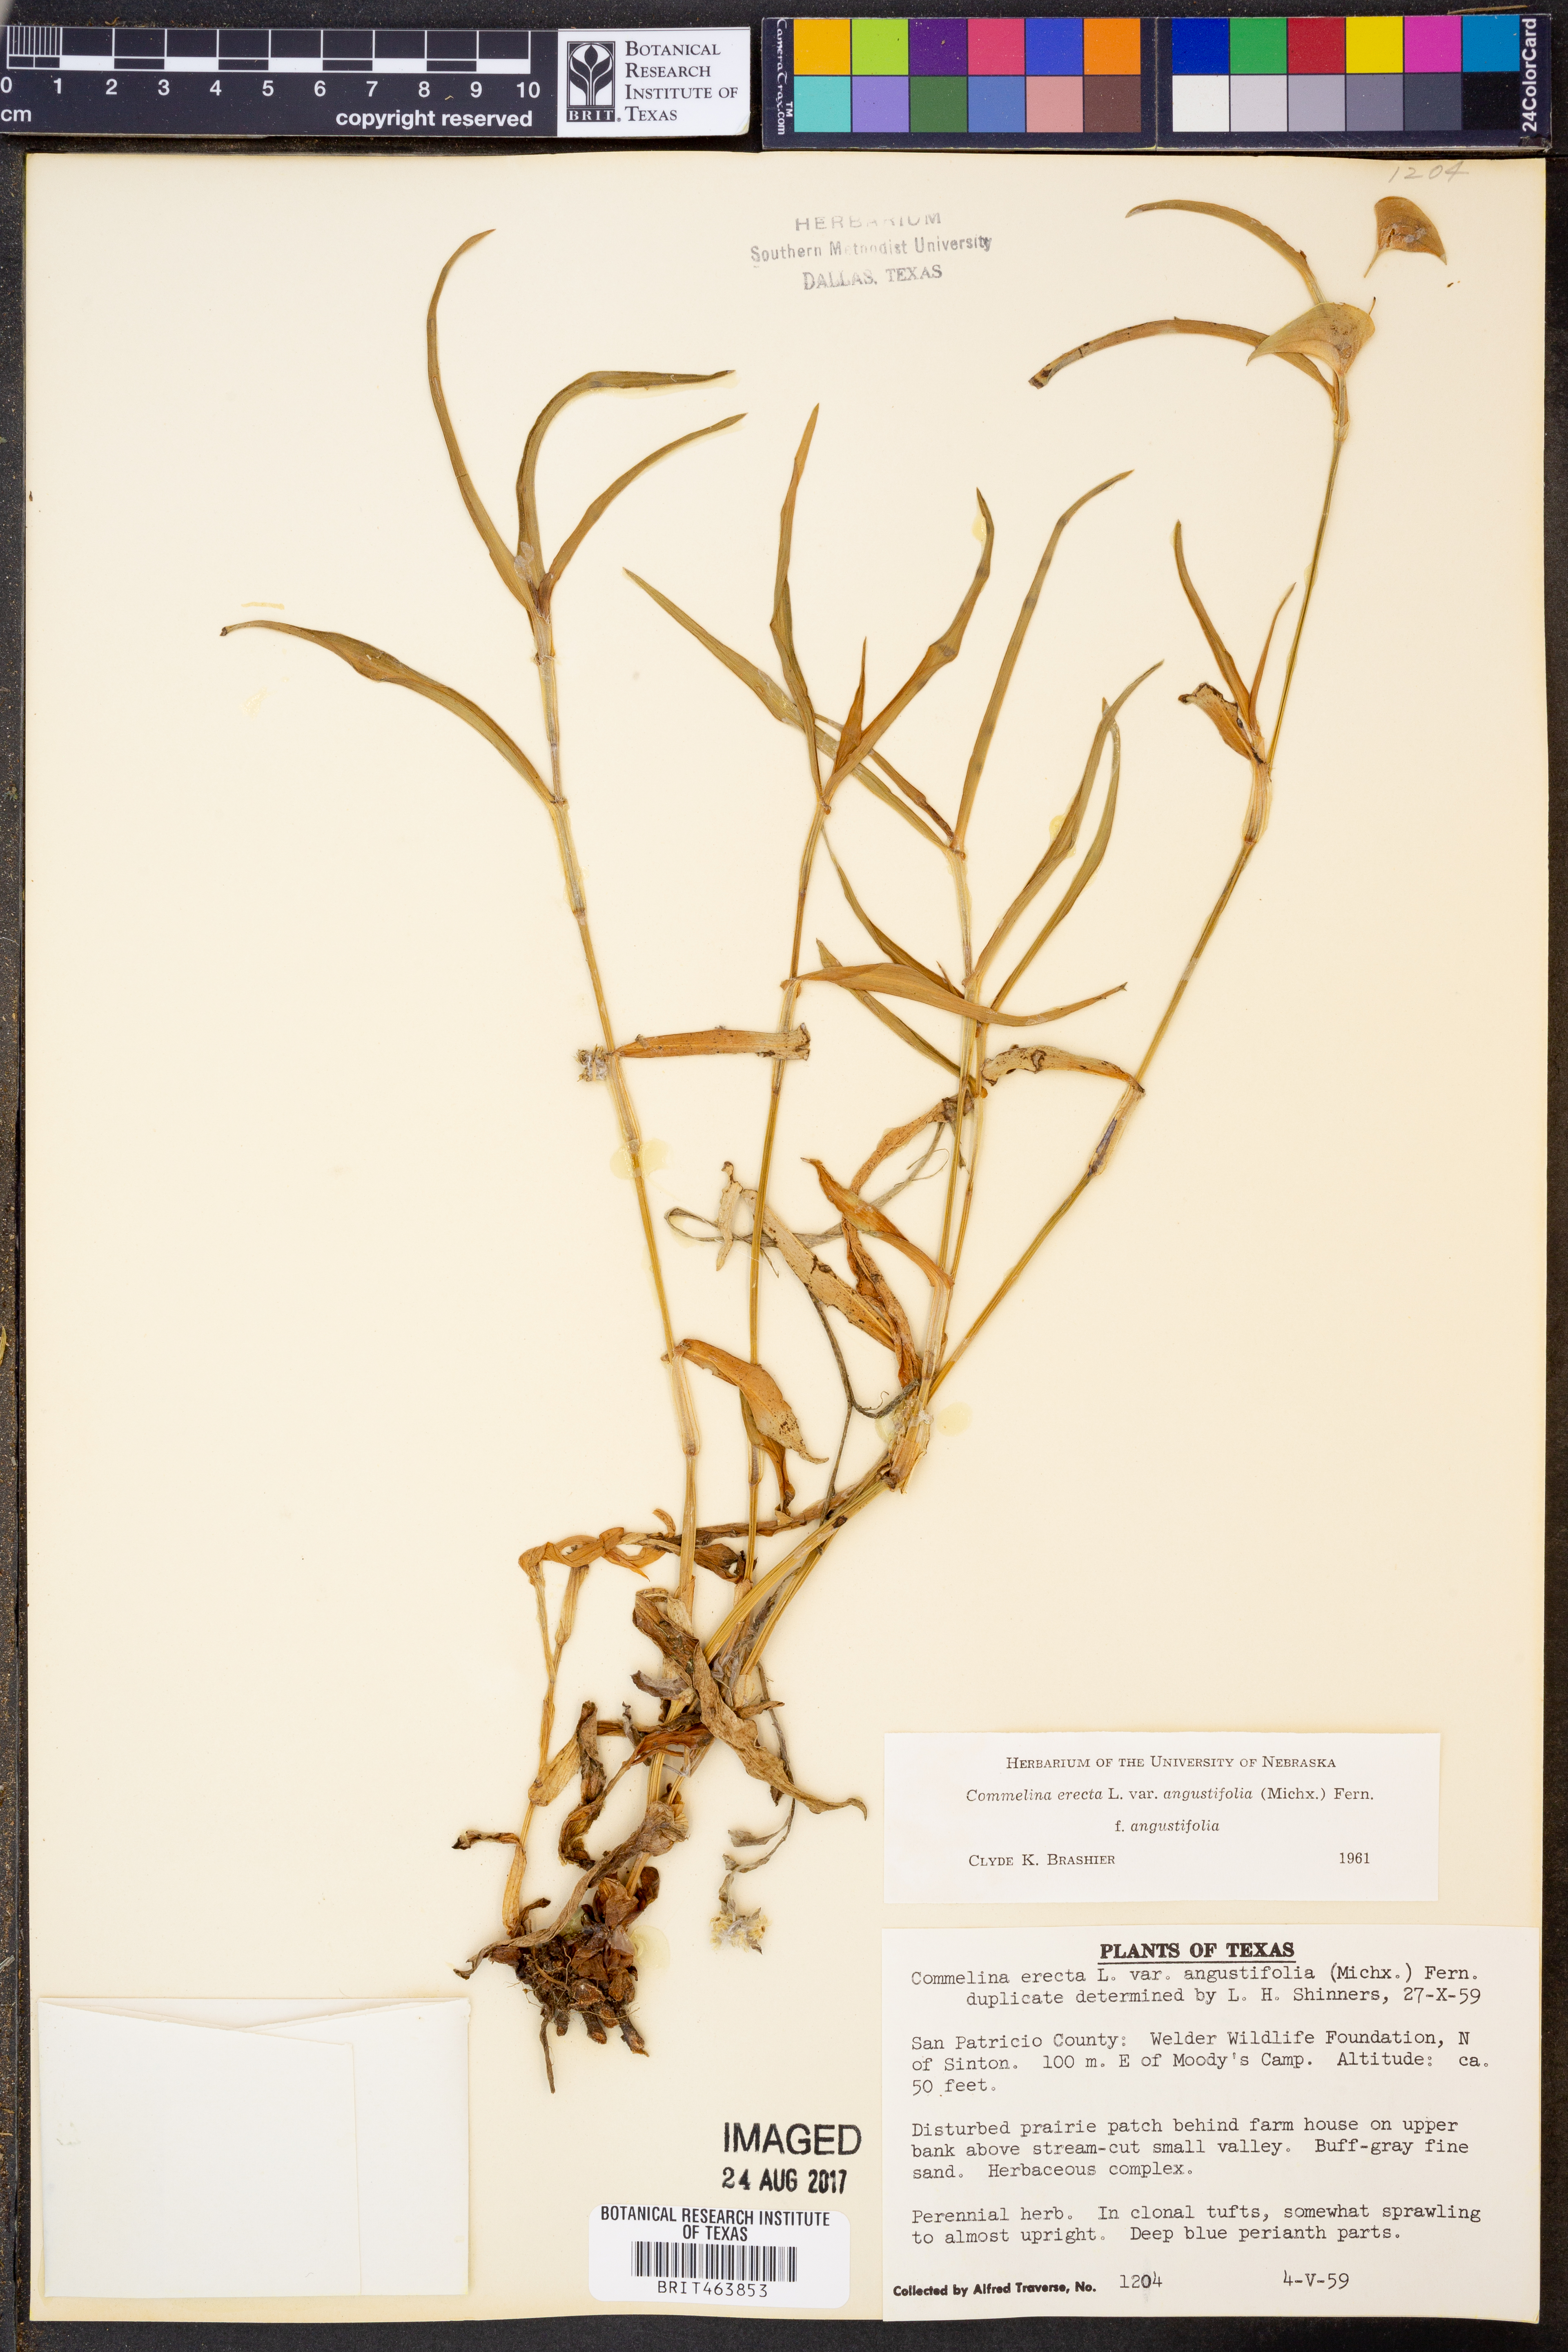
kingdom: Plantae
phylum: Tracheophyta
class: Liliopsida
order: Commelinales
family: Commelinaceae
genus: Commelina
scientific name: Commelina erecta
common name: Blousel blommetjie
